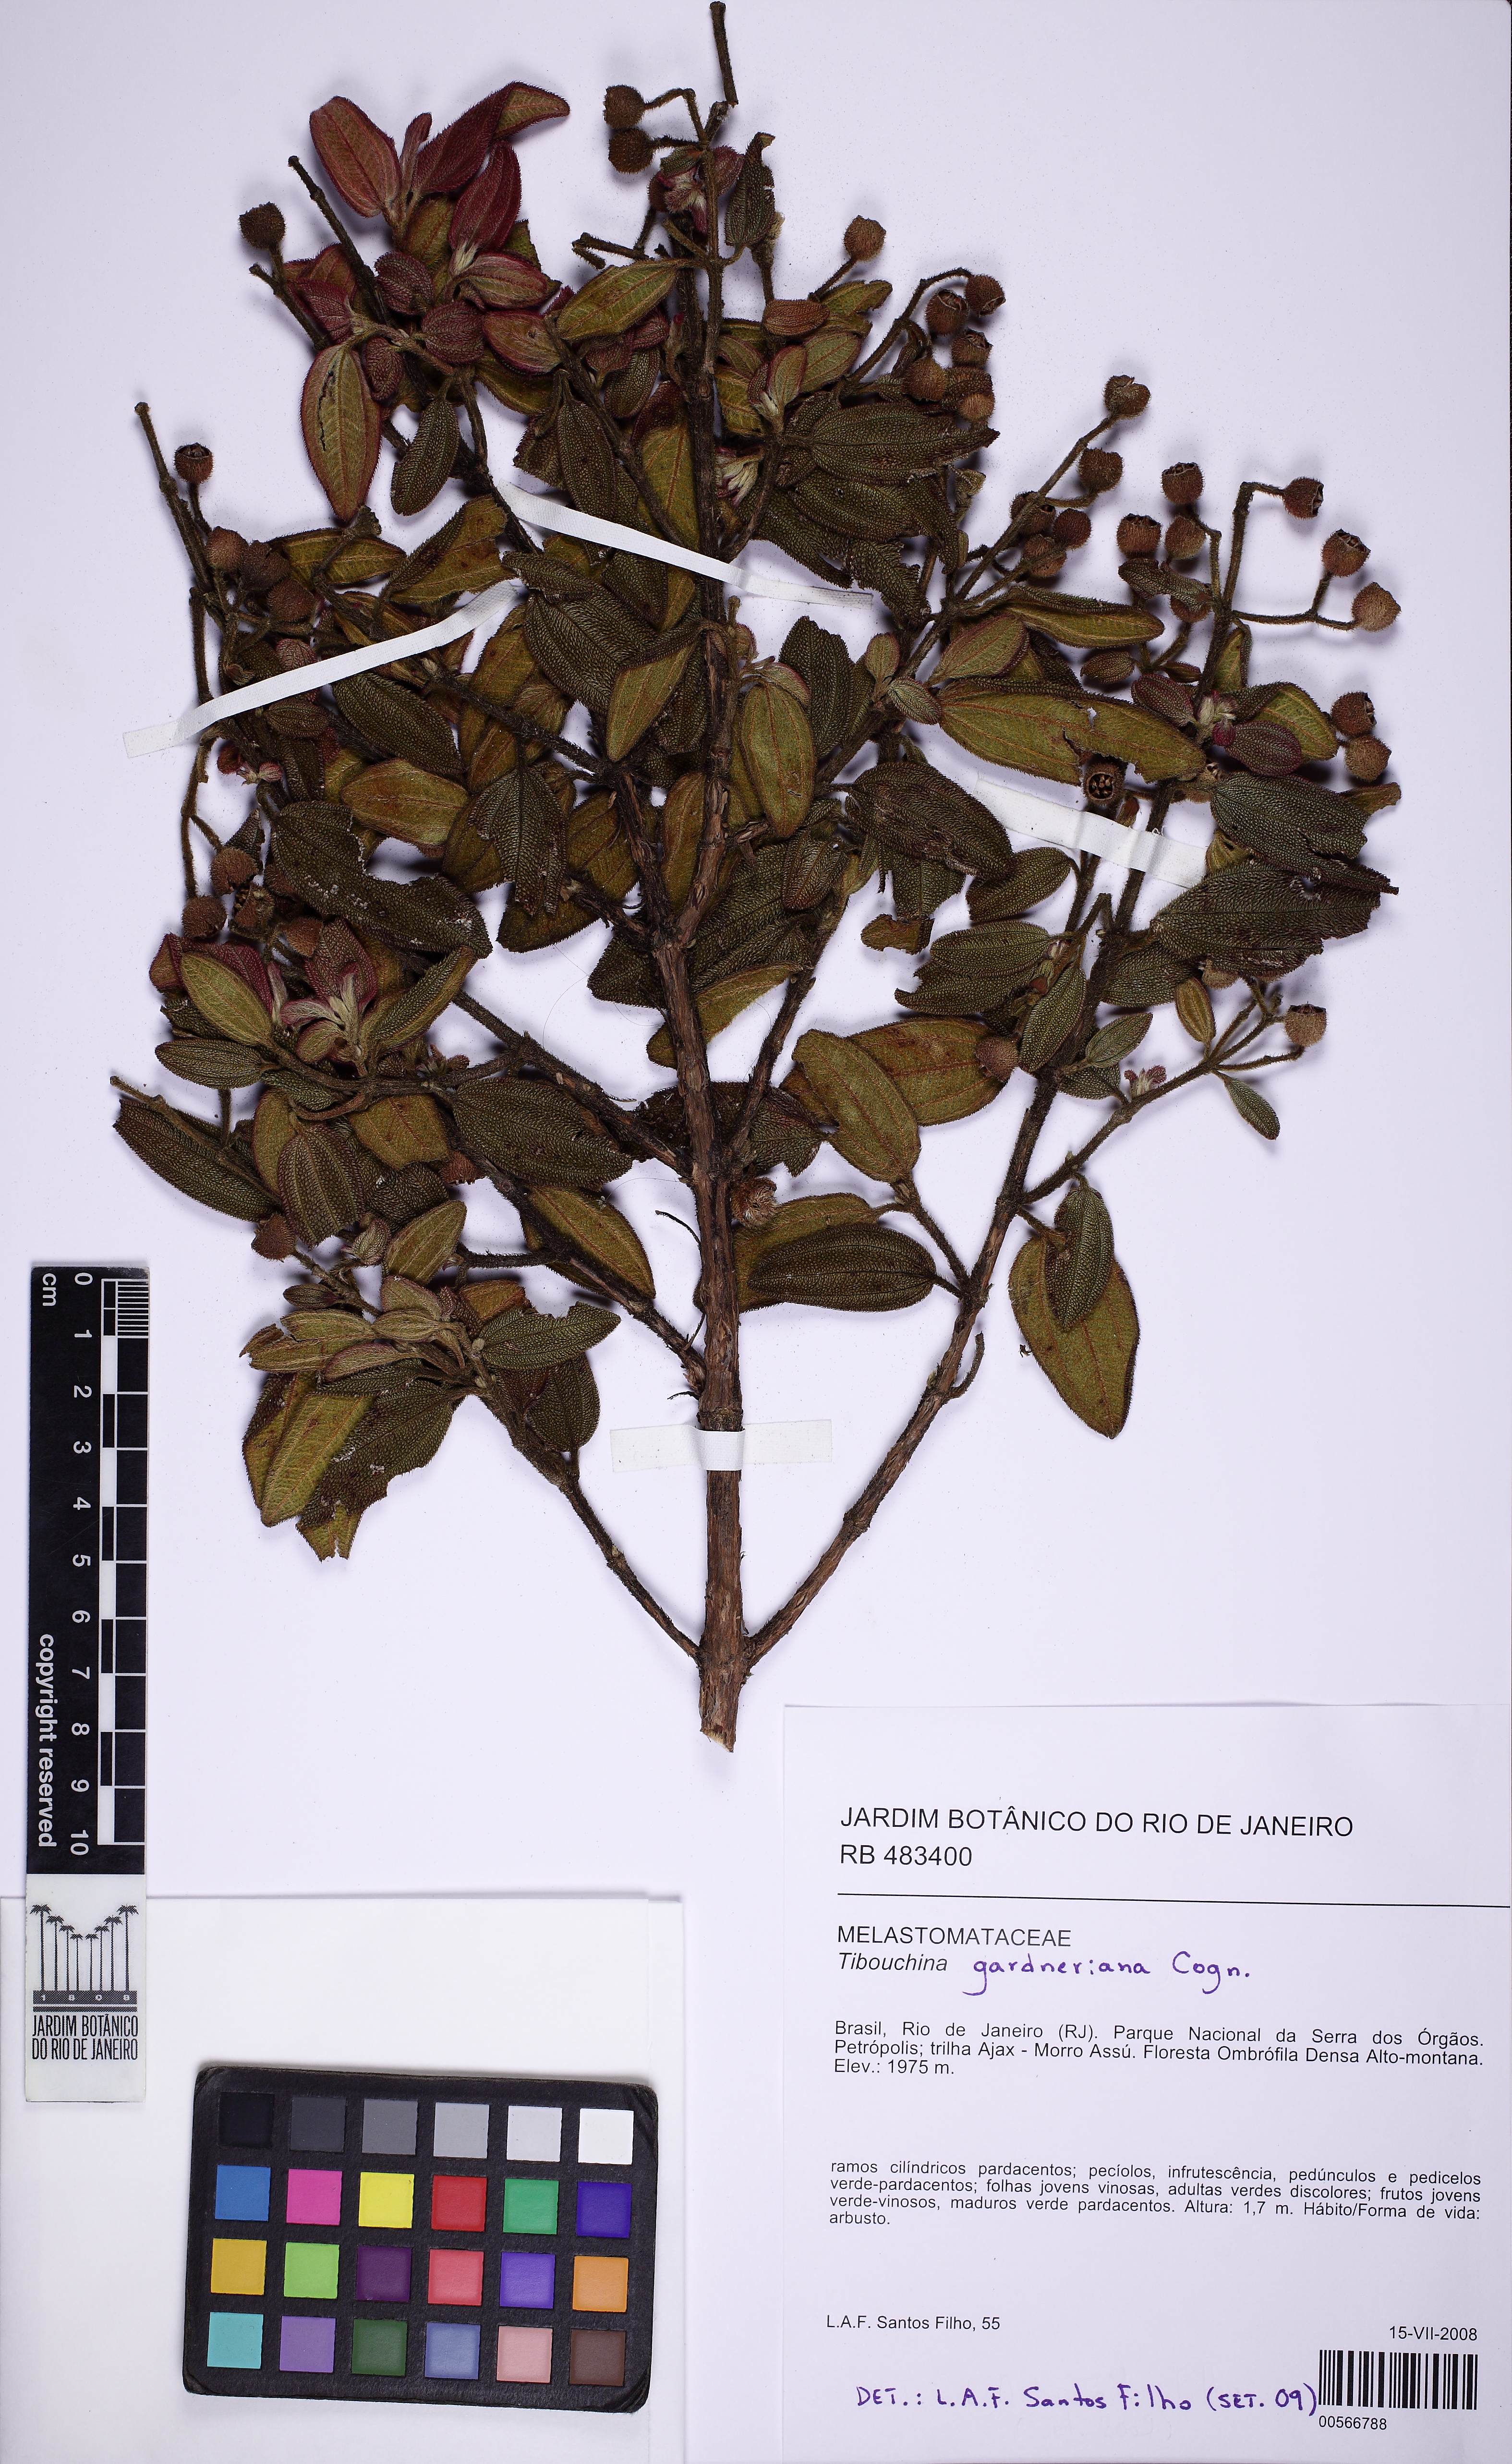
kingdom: Plantae
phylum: Tracheophyta
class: Magnoliopsida
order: Myrtales
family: Melastomataceae
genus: Pleroma
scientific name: Pleroma echinatum
